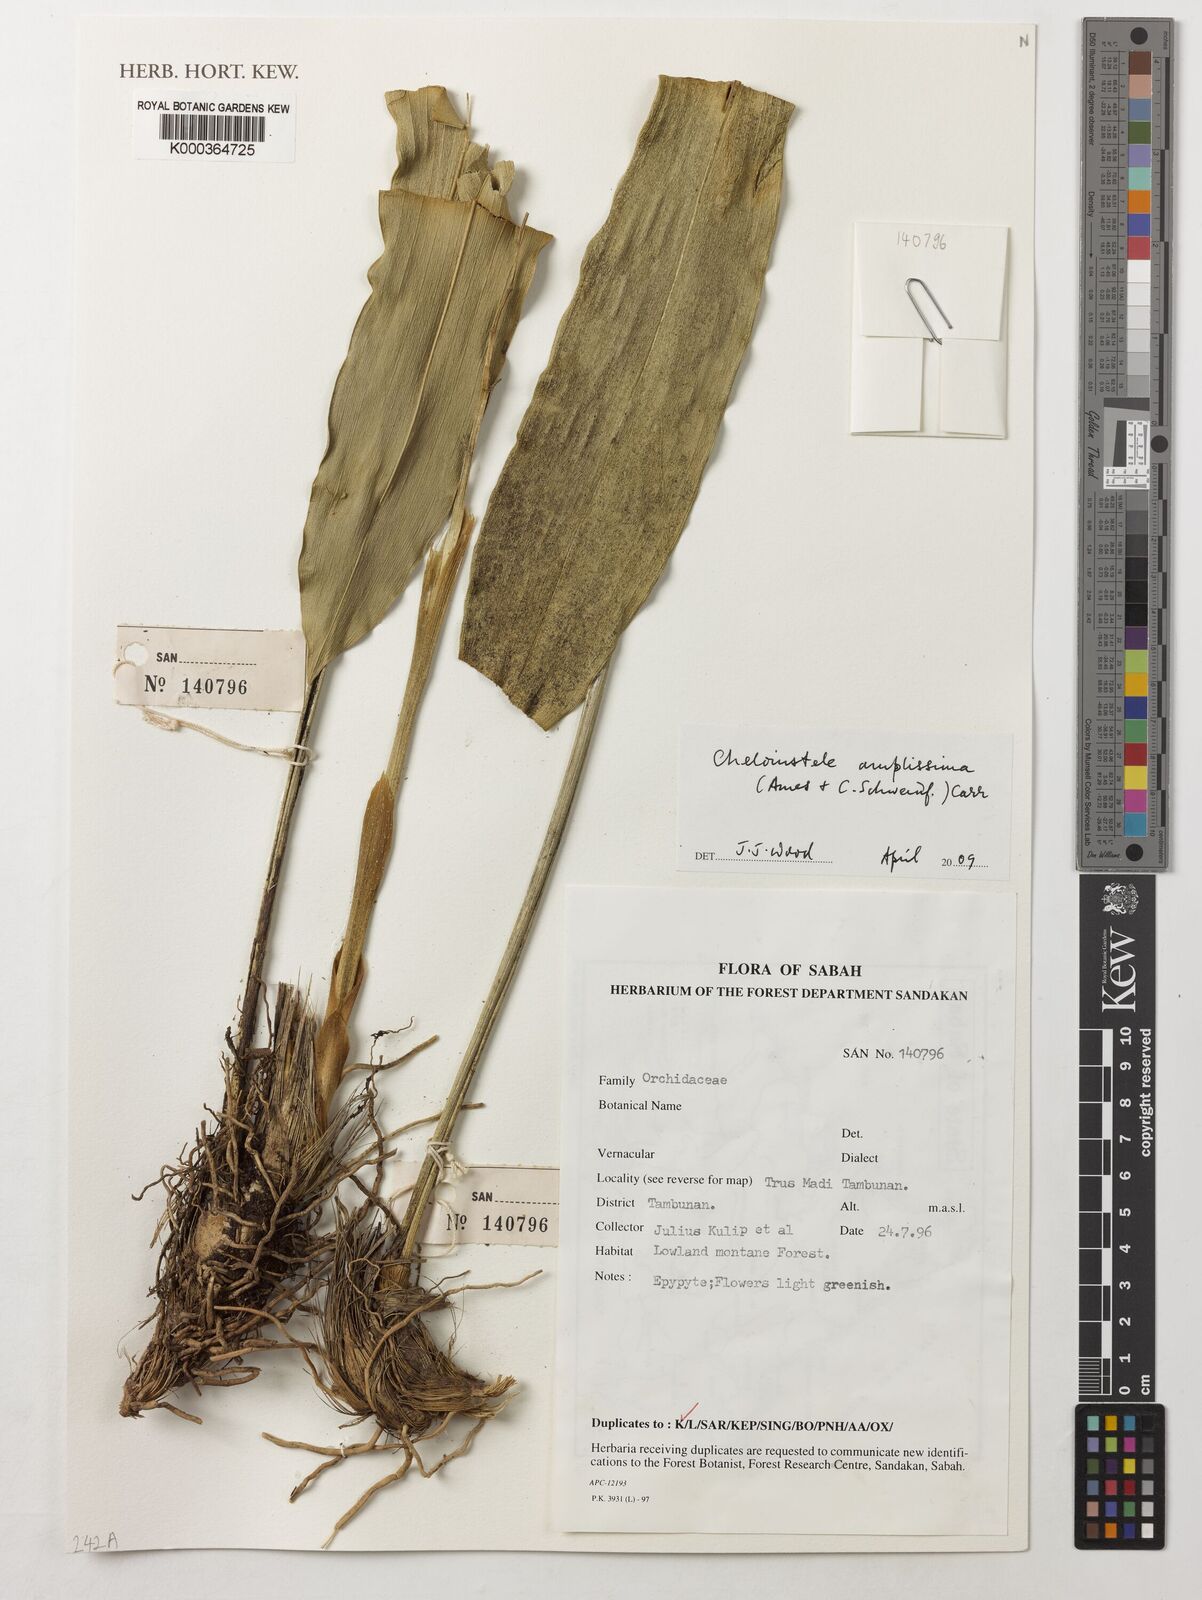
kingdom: Plantae
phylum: Tracheophyta
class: Liliopsida
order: Asparagales
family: Orchidaceae
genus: Coelogyne
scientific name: Coelogyne amplissima
